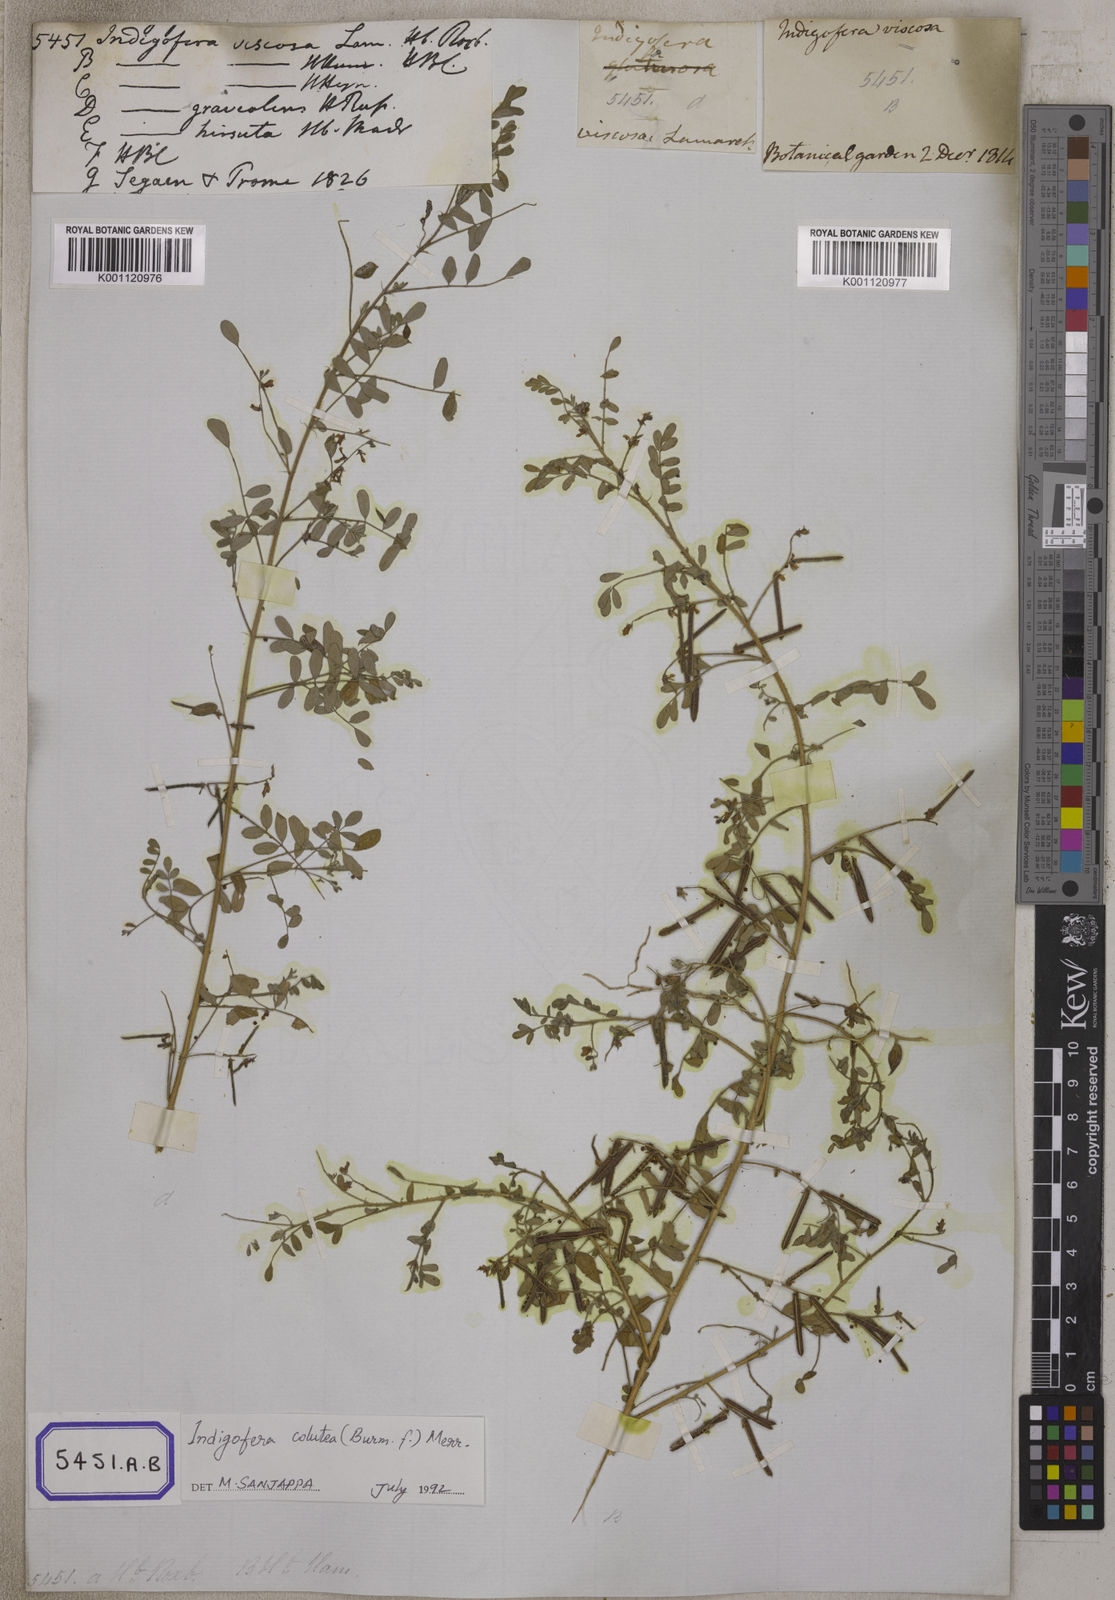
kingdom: Plantae
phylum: Tracheophyta
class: Magnoliopsida
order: Fabales
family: Fabaceae
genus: Indigofera
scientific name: Indigofera colutea
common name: Rusty indigo
